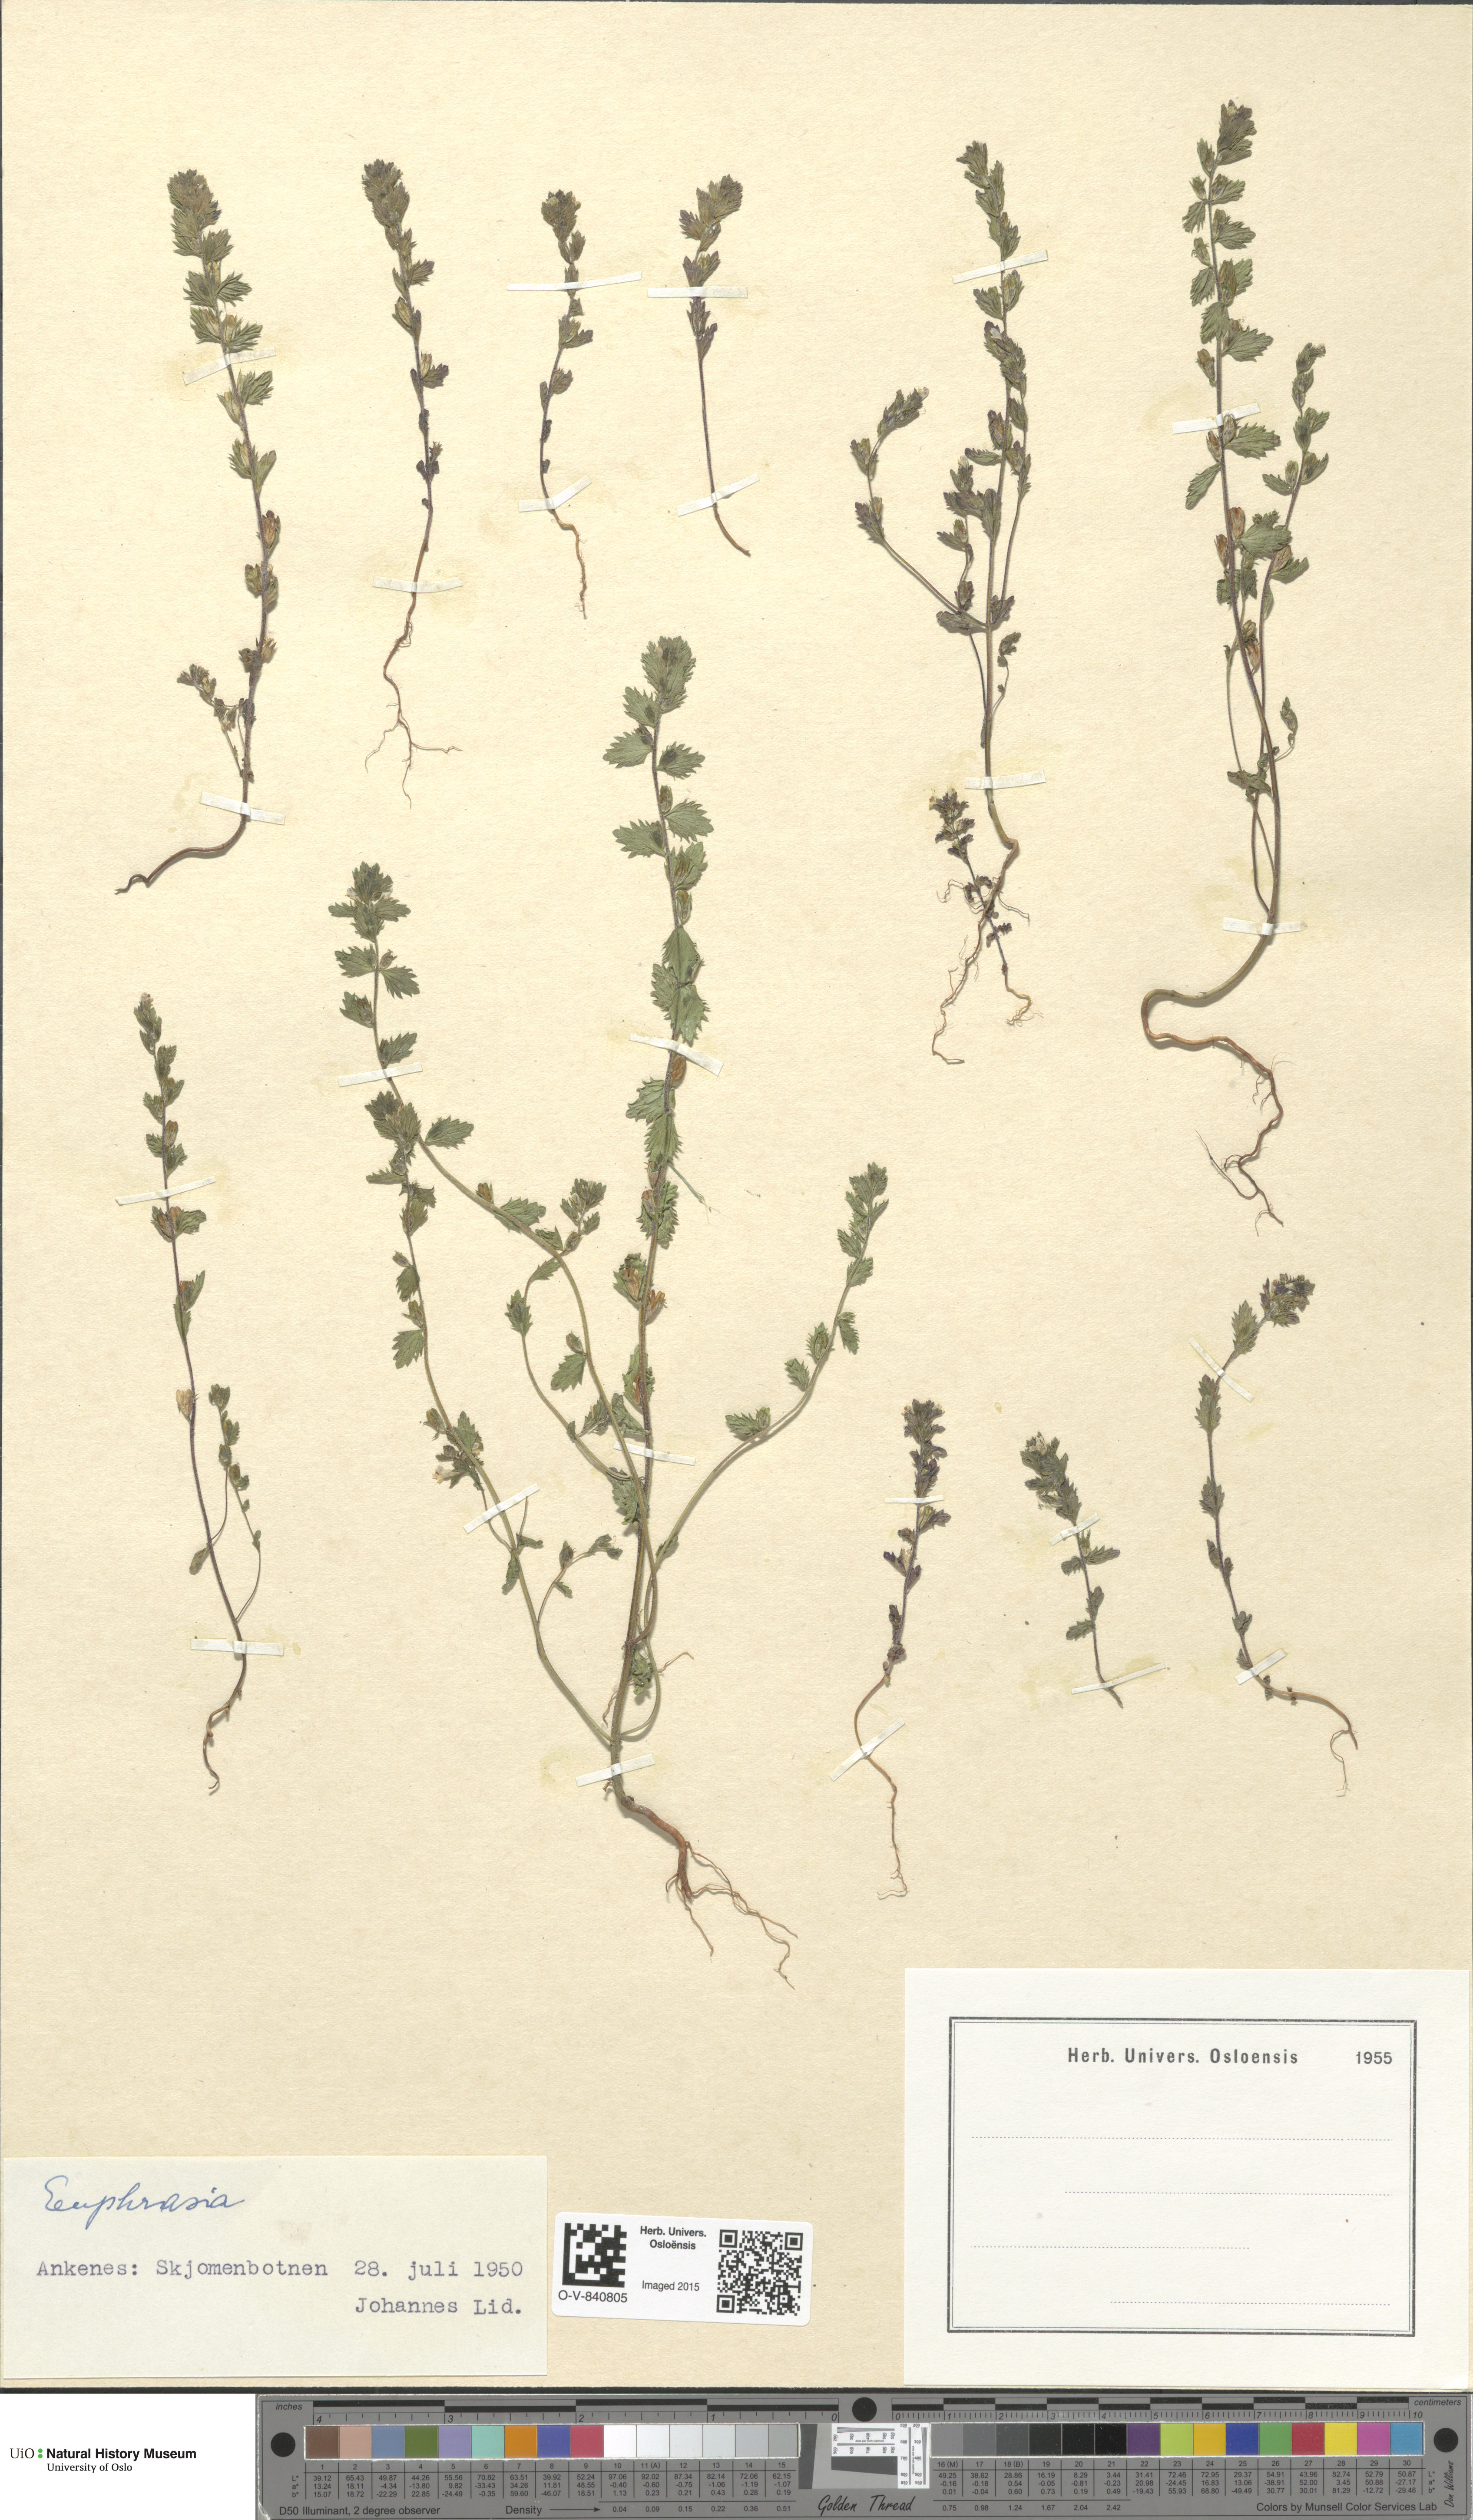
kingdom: Plantae
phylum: Tracheophyta
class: Magnoliopsida
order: Lamiales
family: Orobanchaceae
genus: Euphrasia
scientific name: Euphrasia
